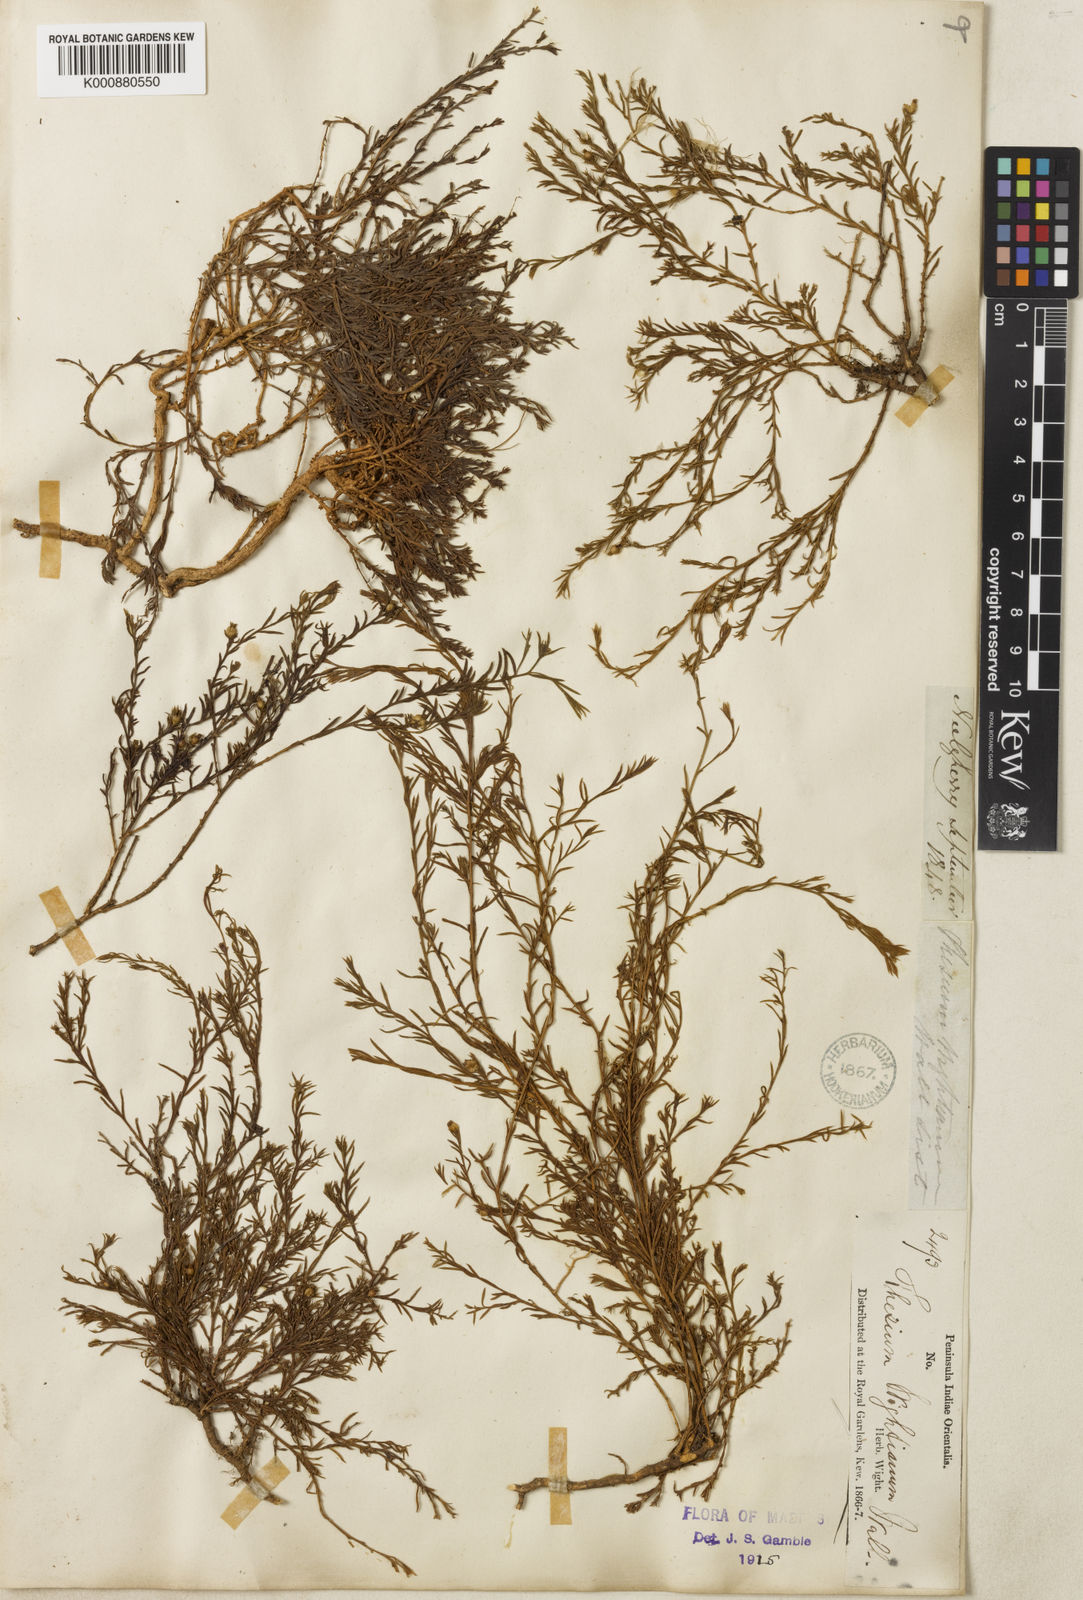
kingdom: Plantae
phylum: Tracheophyta
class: Magnoliopsida
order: Santalales
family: Thesiaceae
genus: Thesium
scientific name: Thesium
